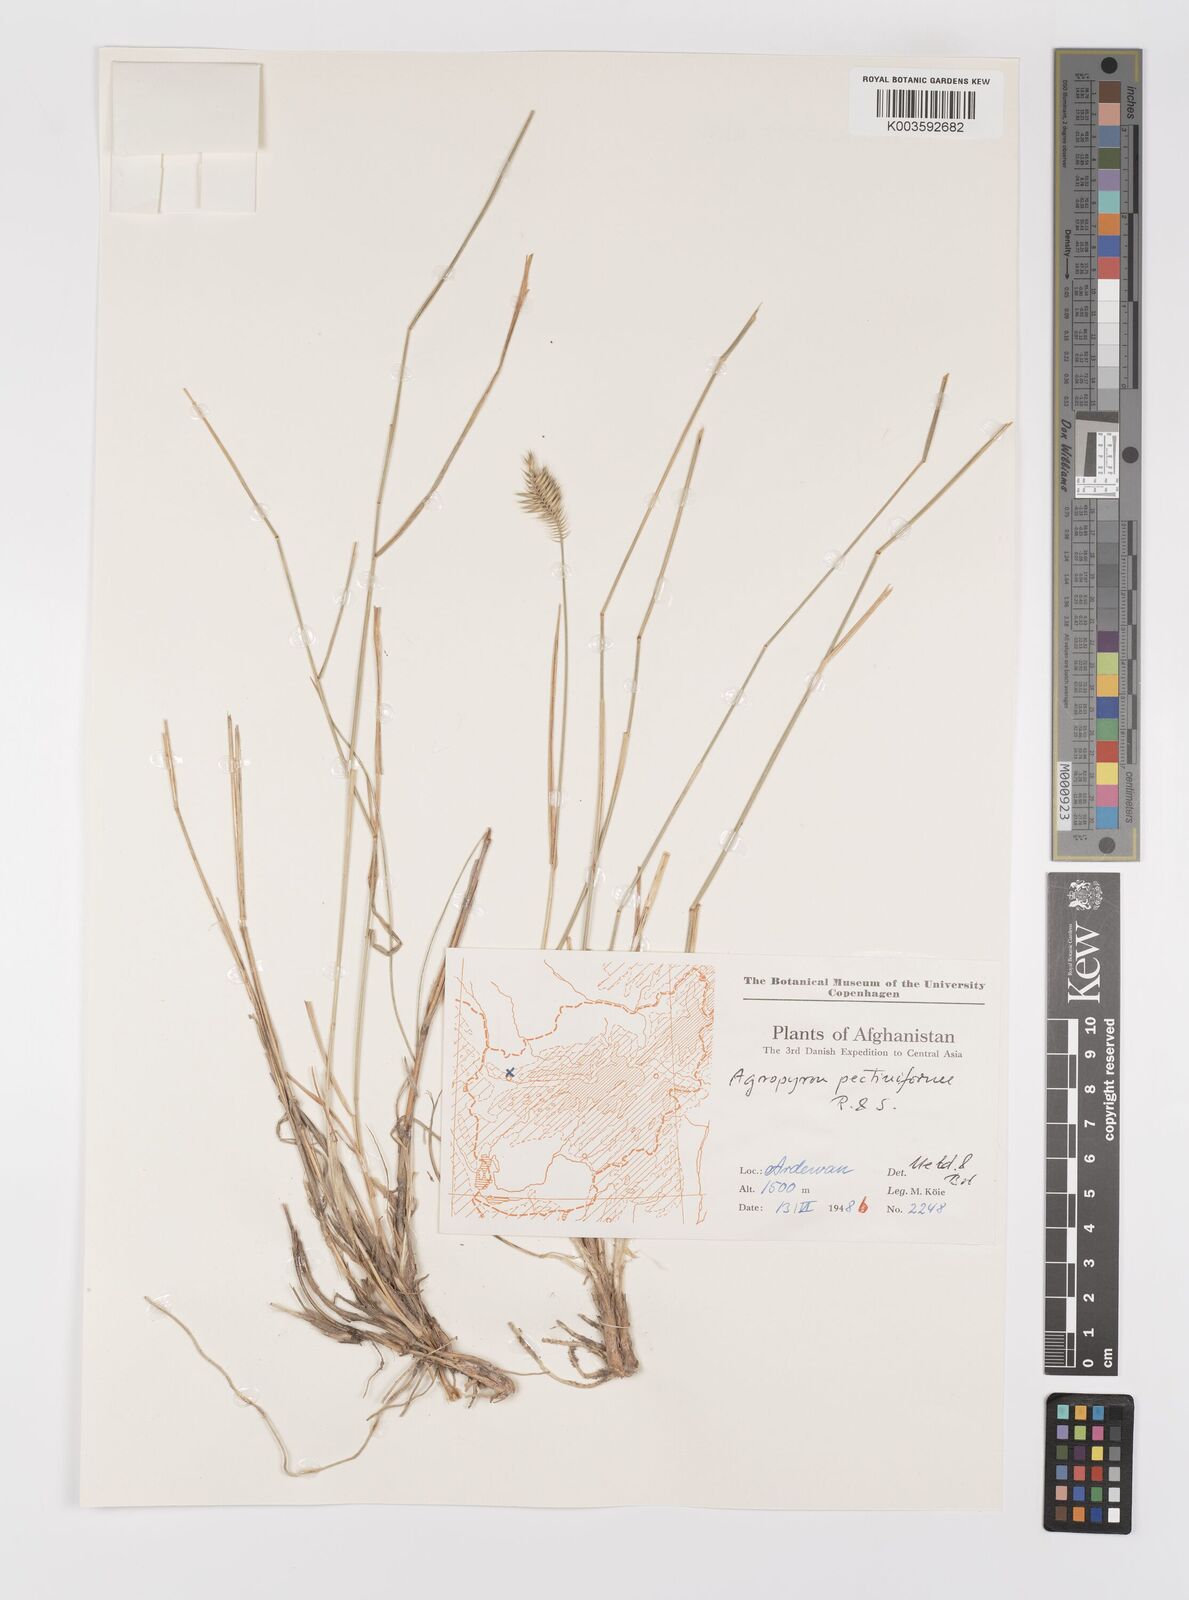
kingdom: Plantae
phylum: Tracheophyta
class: Liliopsida
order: Poales
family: Poaceae
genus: Agropyron
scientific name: Agropyron
